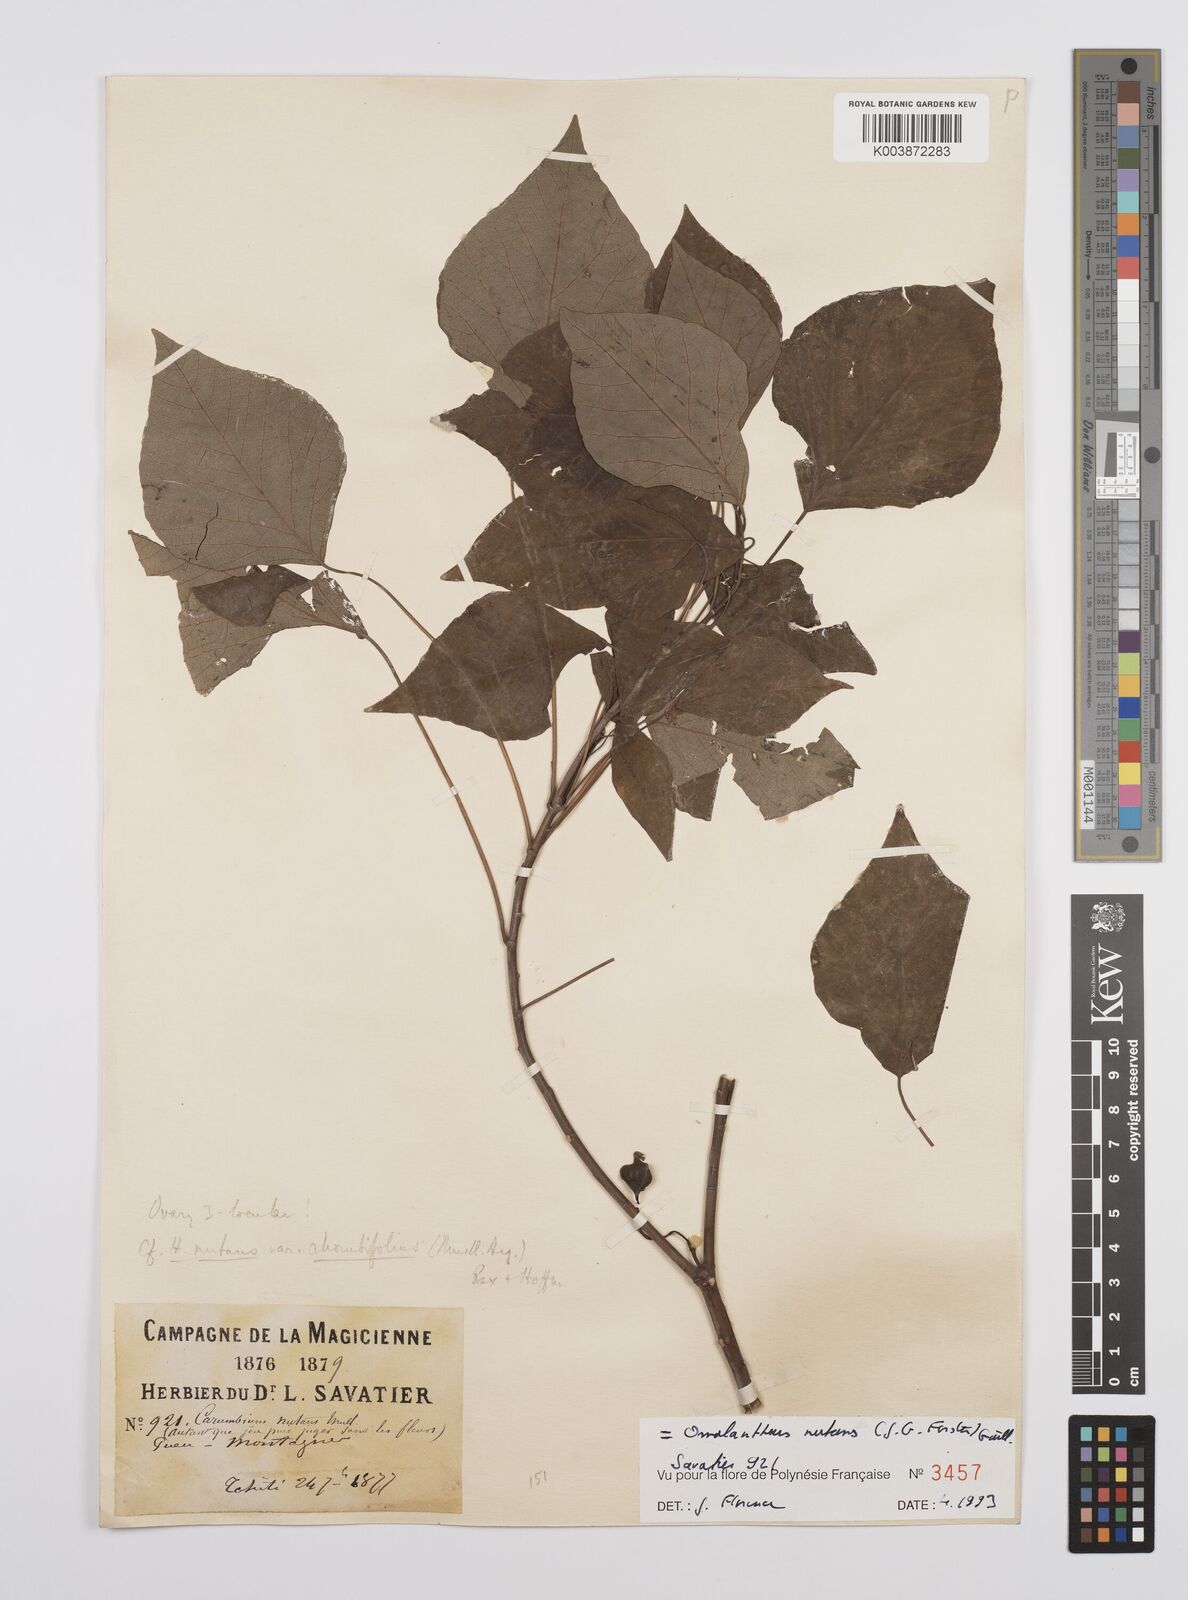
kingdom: Plantae
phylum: Tracheophyta
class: Magnoliopsida
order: Malpighiales
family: Euphorbiaceae
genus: Homalanthus
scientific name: Homalanthus nutans
